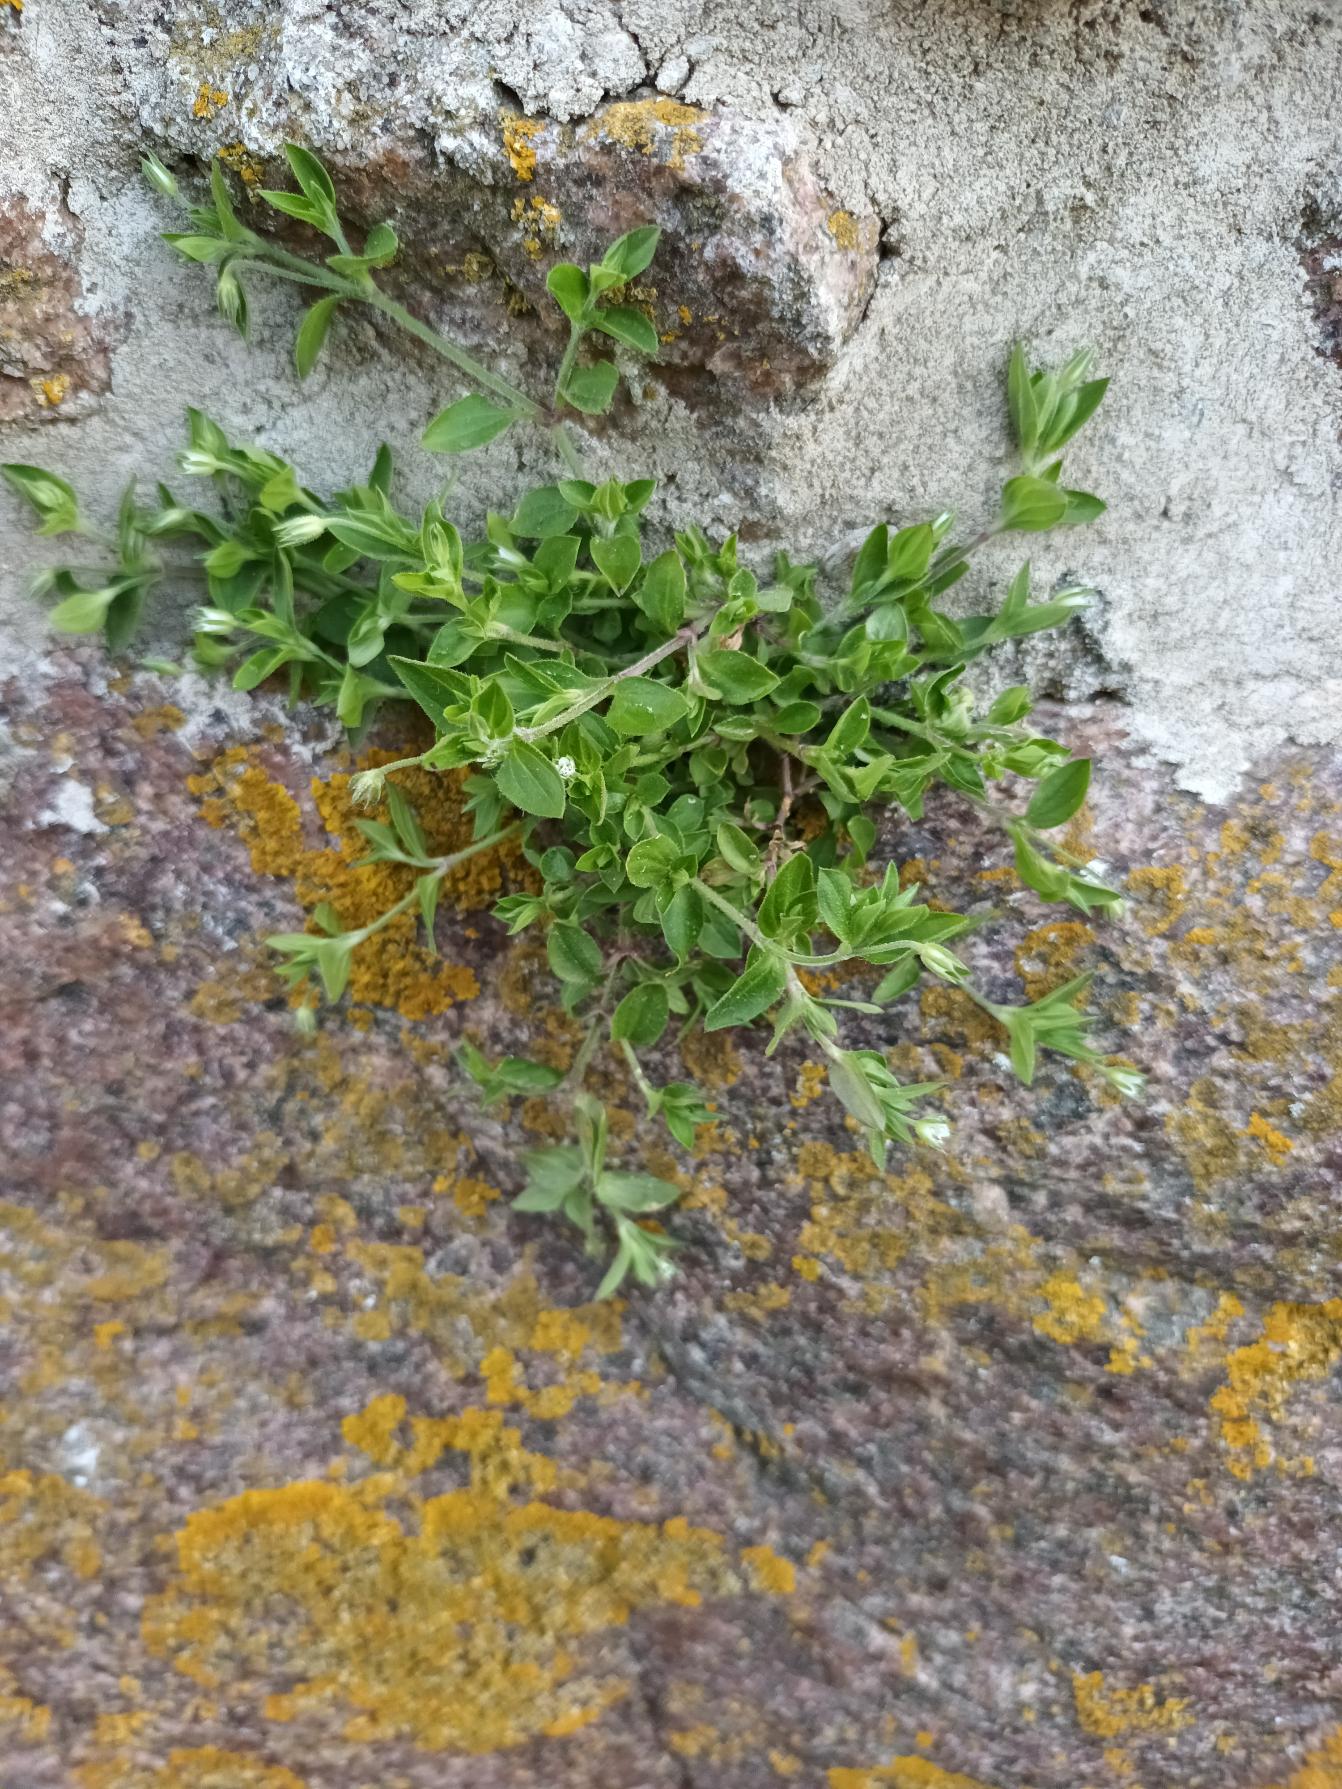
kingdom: Plantae
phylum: Tracheophyta
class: Magnoliopsida
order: Caryophyllales
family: Caryophyllaceae
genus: Moehringia
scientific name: Moehringia trinervia
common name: Skovarve
